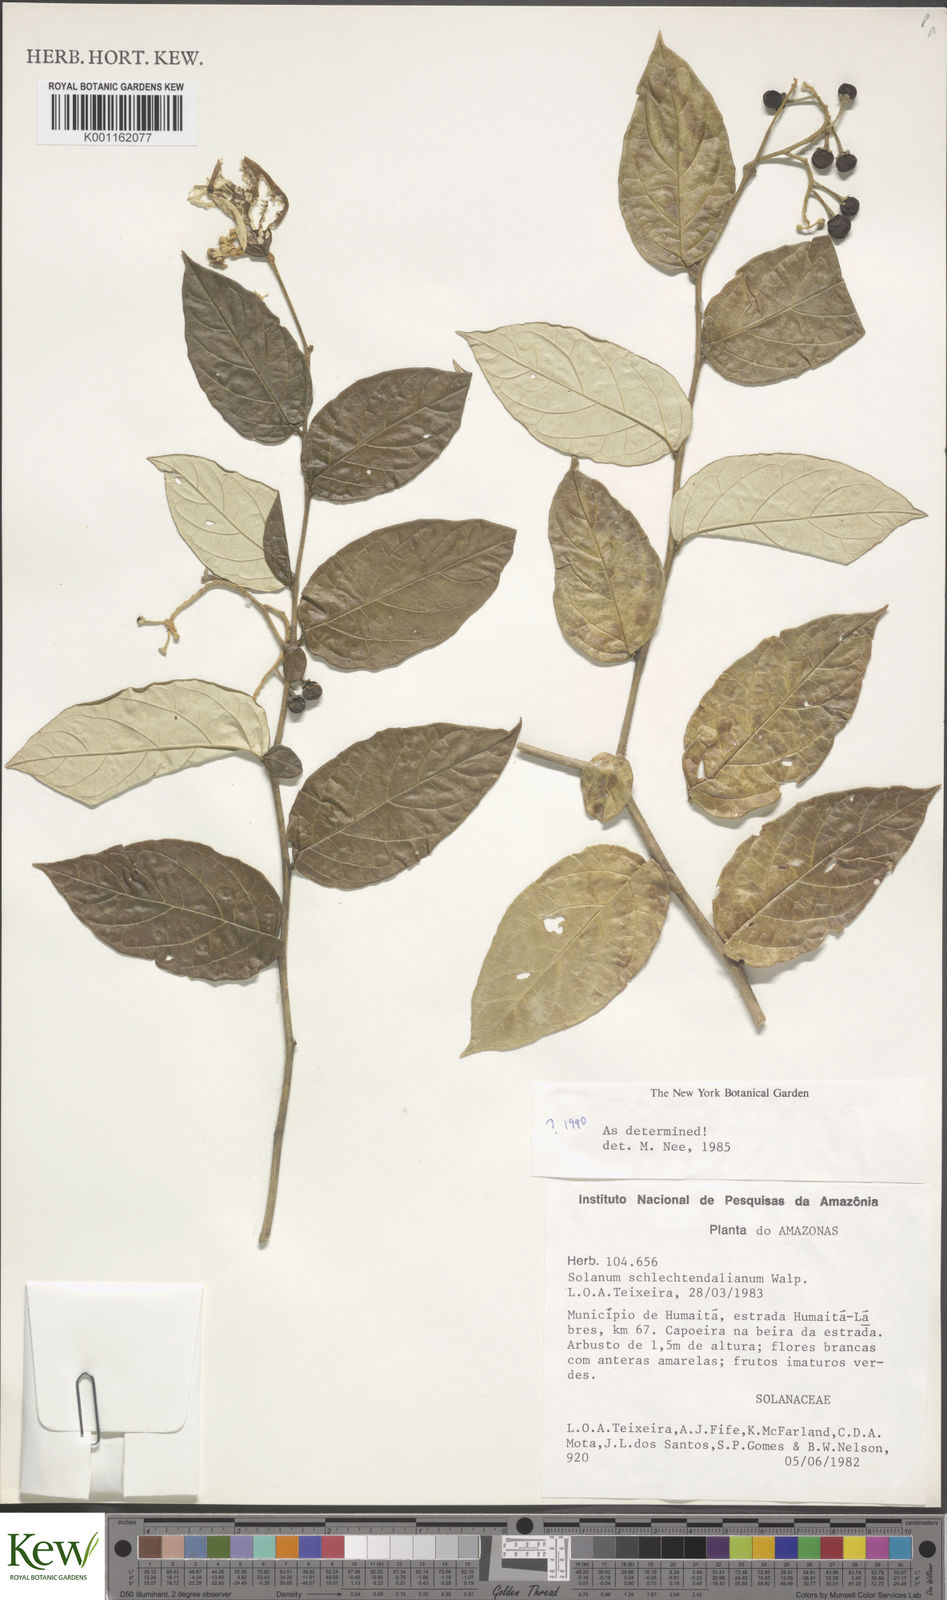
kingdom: Plantae
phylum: Tracheophyta
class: Magnoliopsida
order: Solanales
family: Solanaceae
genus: Solanum
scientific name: Solanum schlechtendalianum
